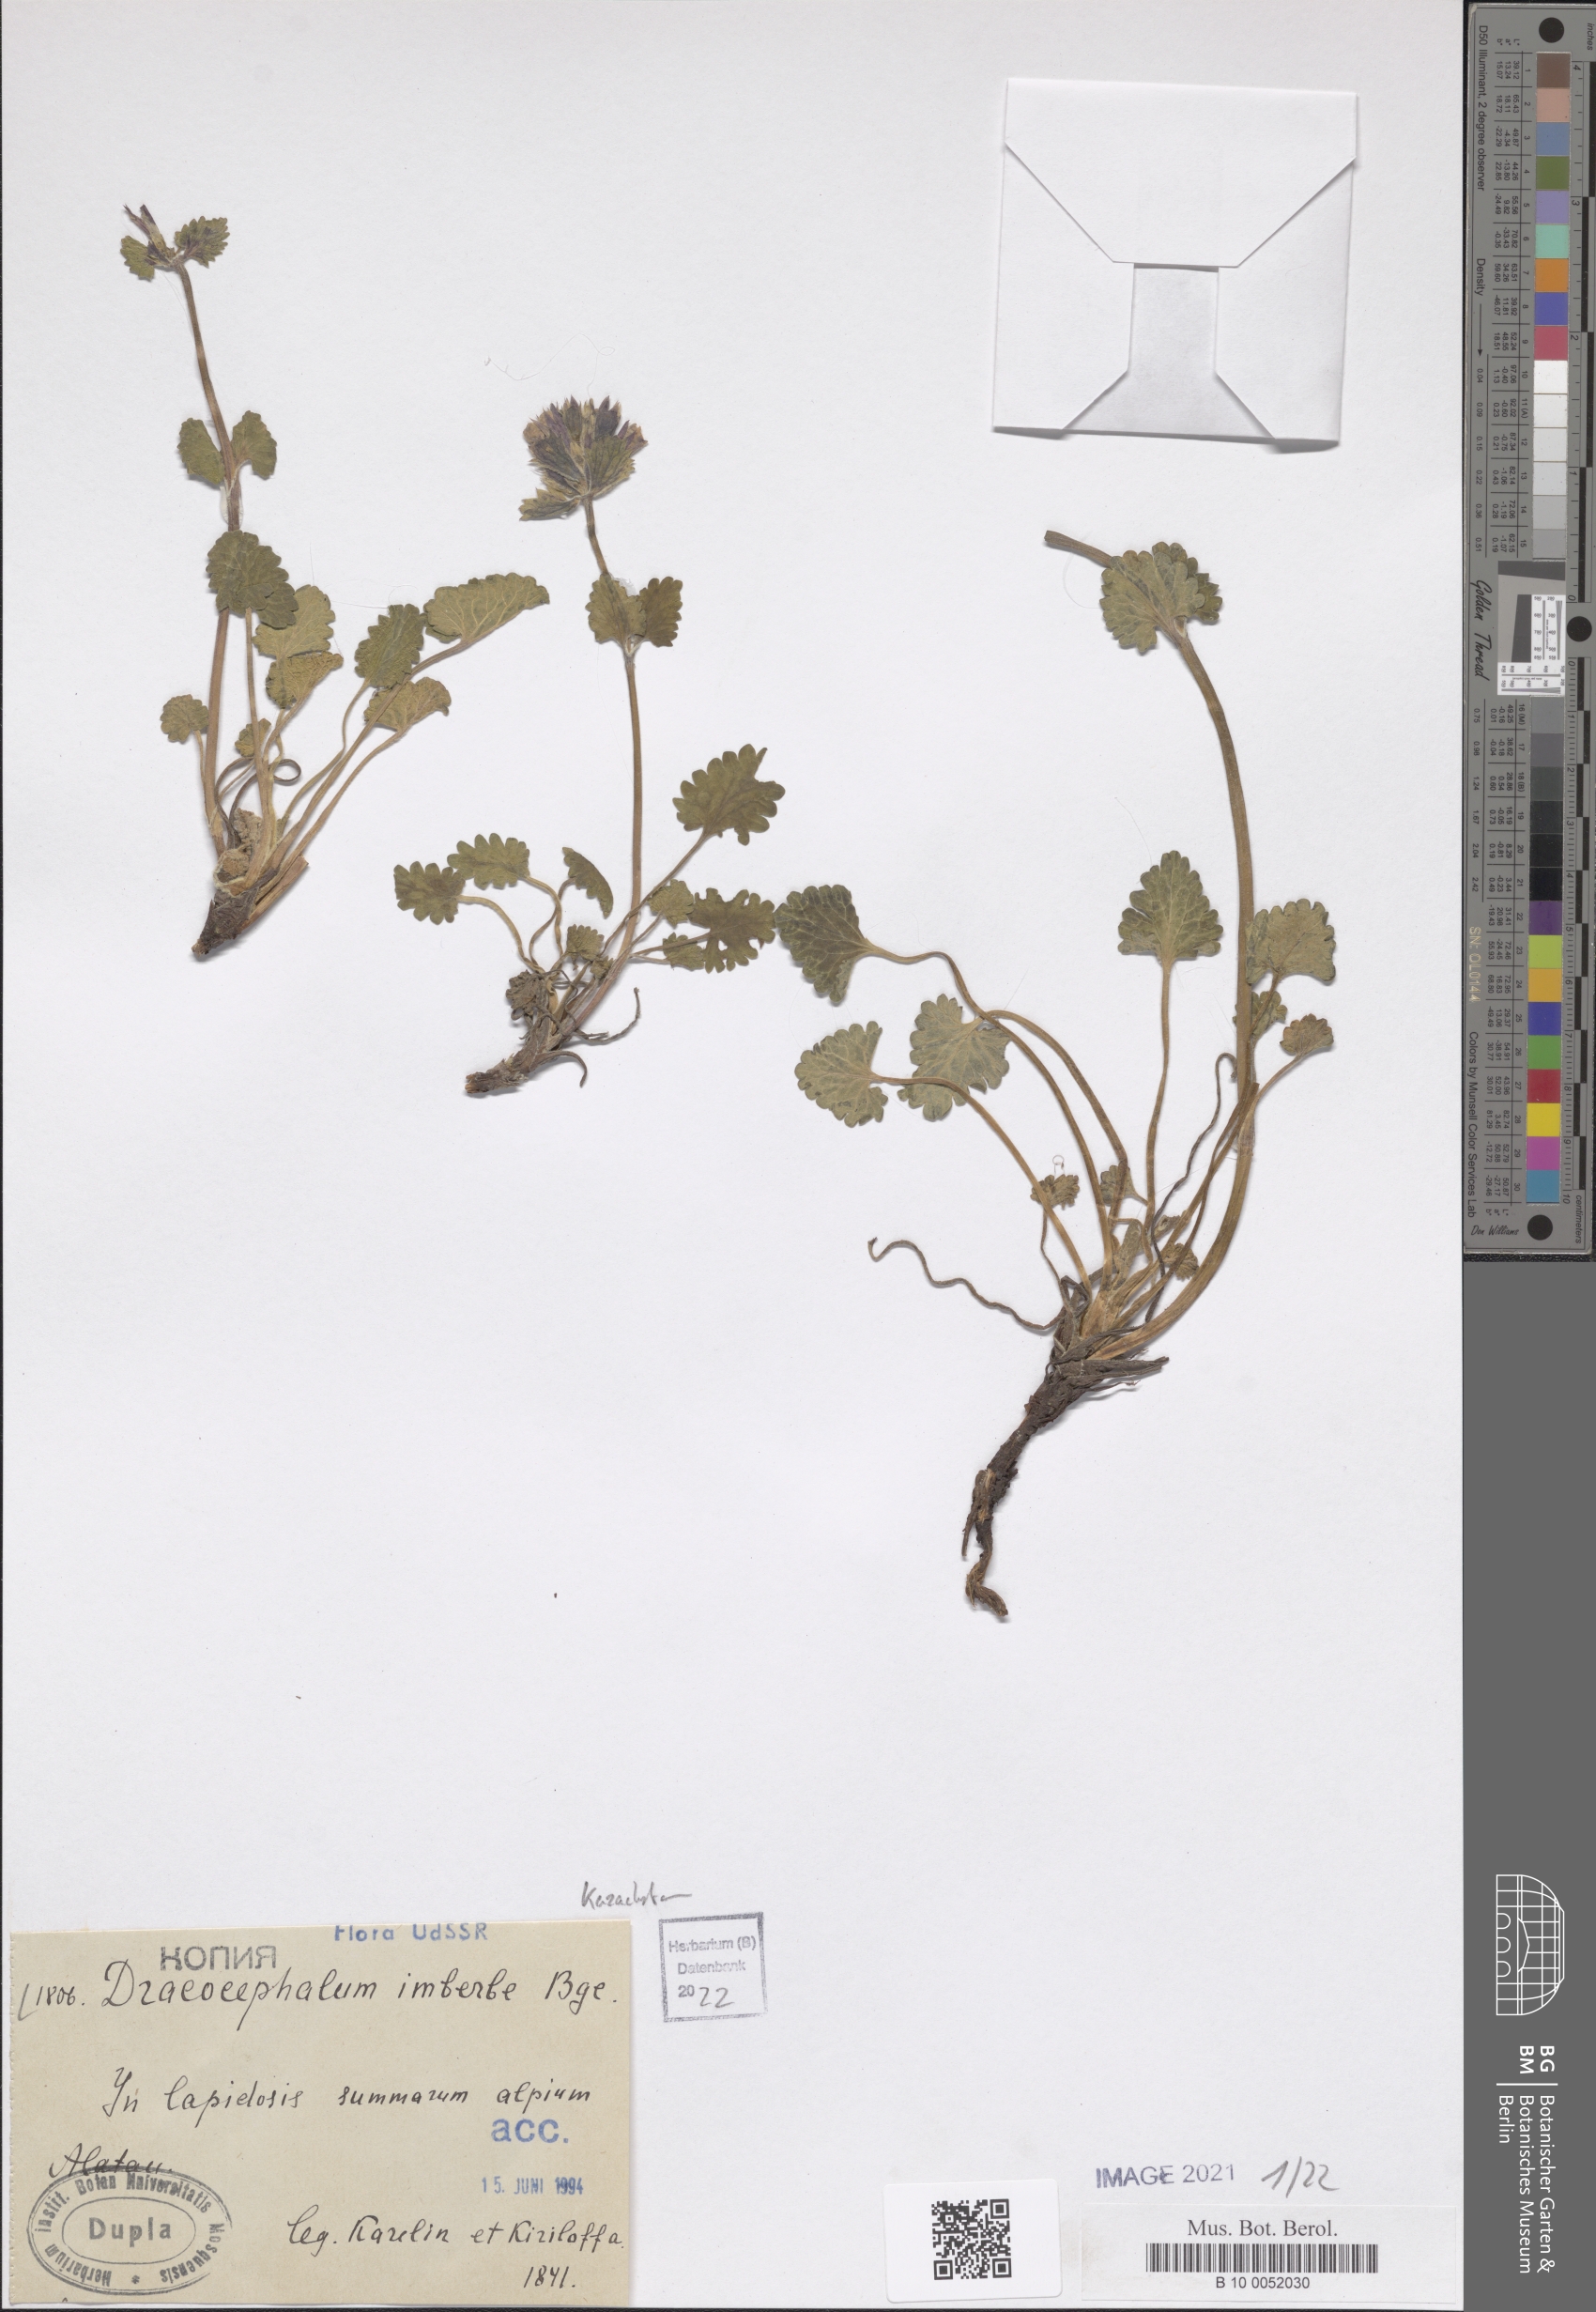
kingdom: Plantae
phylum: Tracheophyta
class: Magnoliopsida
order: Lamiales
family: Lamiaceae
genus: Dracocephalum
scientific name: Dracocephalum imberbe
